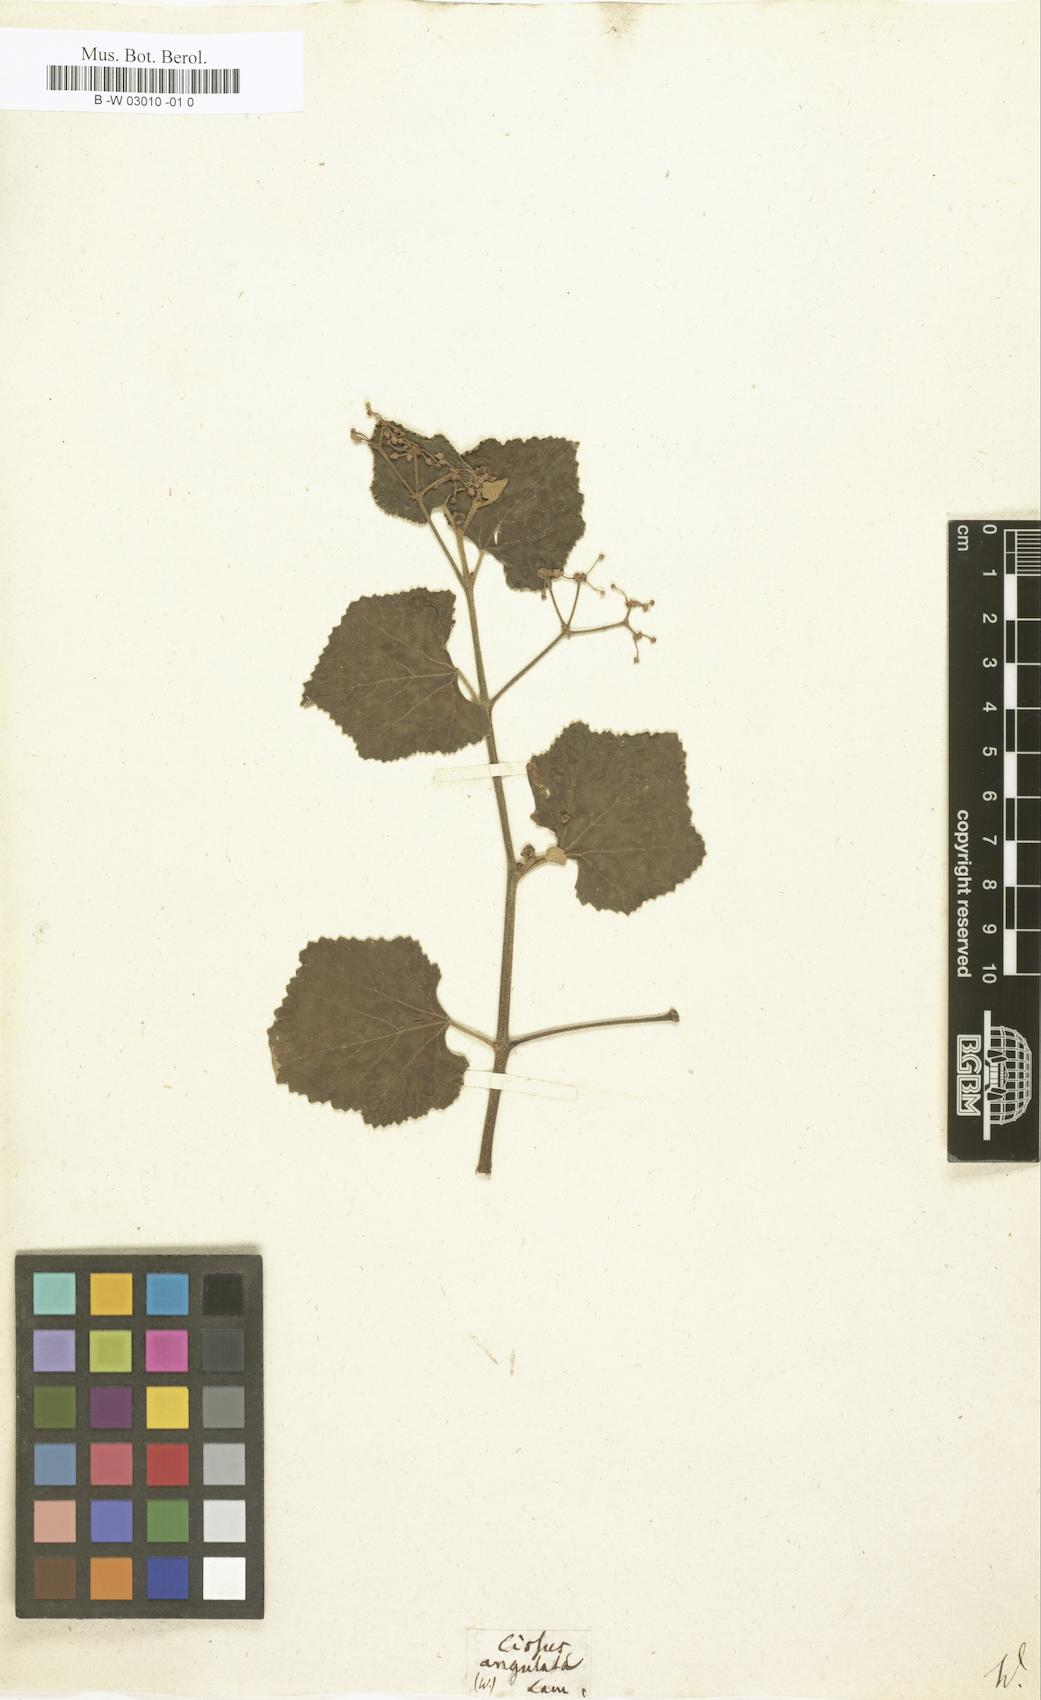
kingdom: Plantae
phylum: Tracheophyta
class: Magnoliopsida
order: Vitales
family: Vitaceae
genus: Cissus
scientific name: Cissus vitiginea
